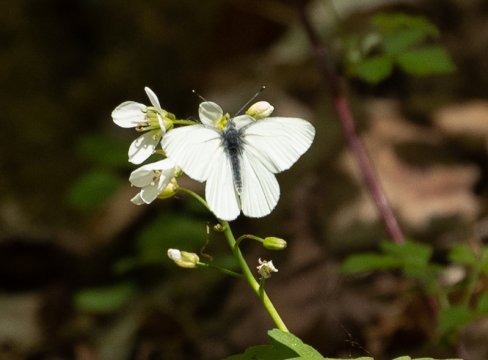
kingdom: Animalia
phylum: Arthropoda
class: Insecta
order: Lepidoptera
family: Pieridae
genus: Pieris
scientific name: Pieris
